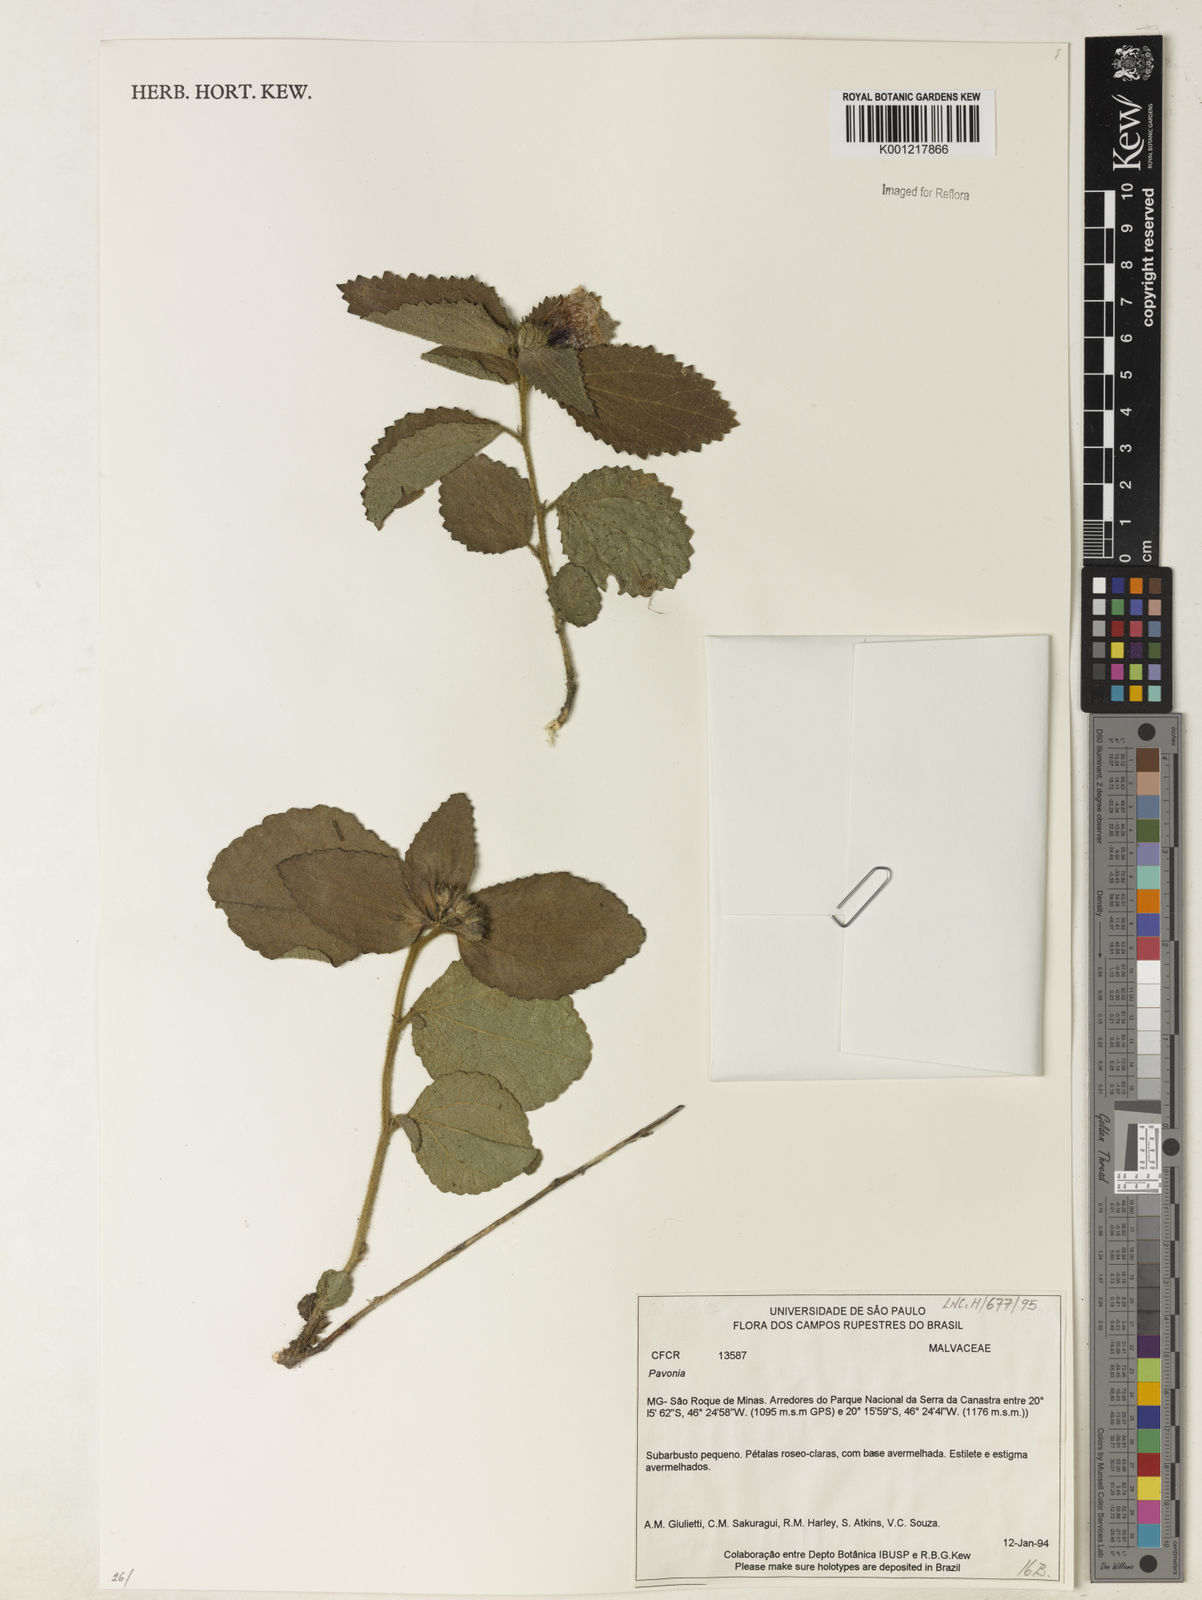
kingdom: Plantae
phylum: Tracheophyta
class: Magnoliopsida
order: Malvales
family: Malvaceae
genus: Pavonia
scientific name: Pavonia
